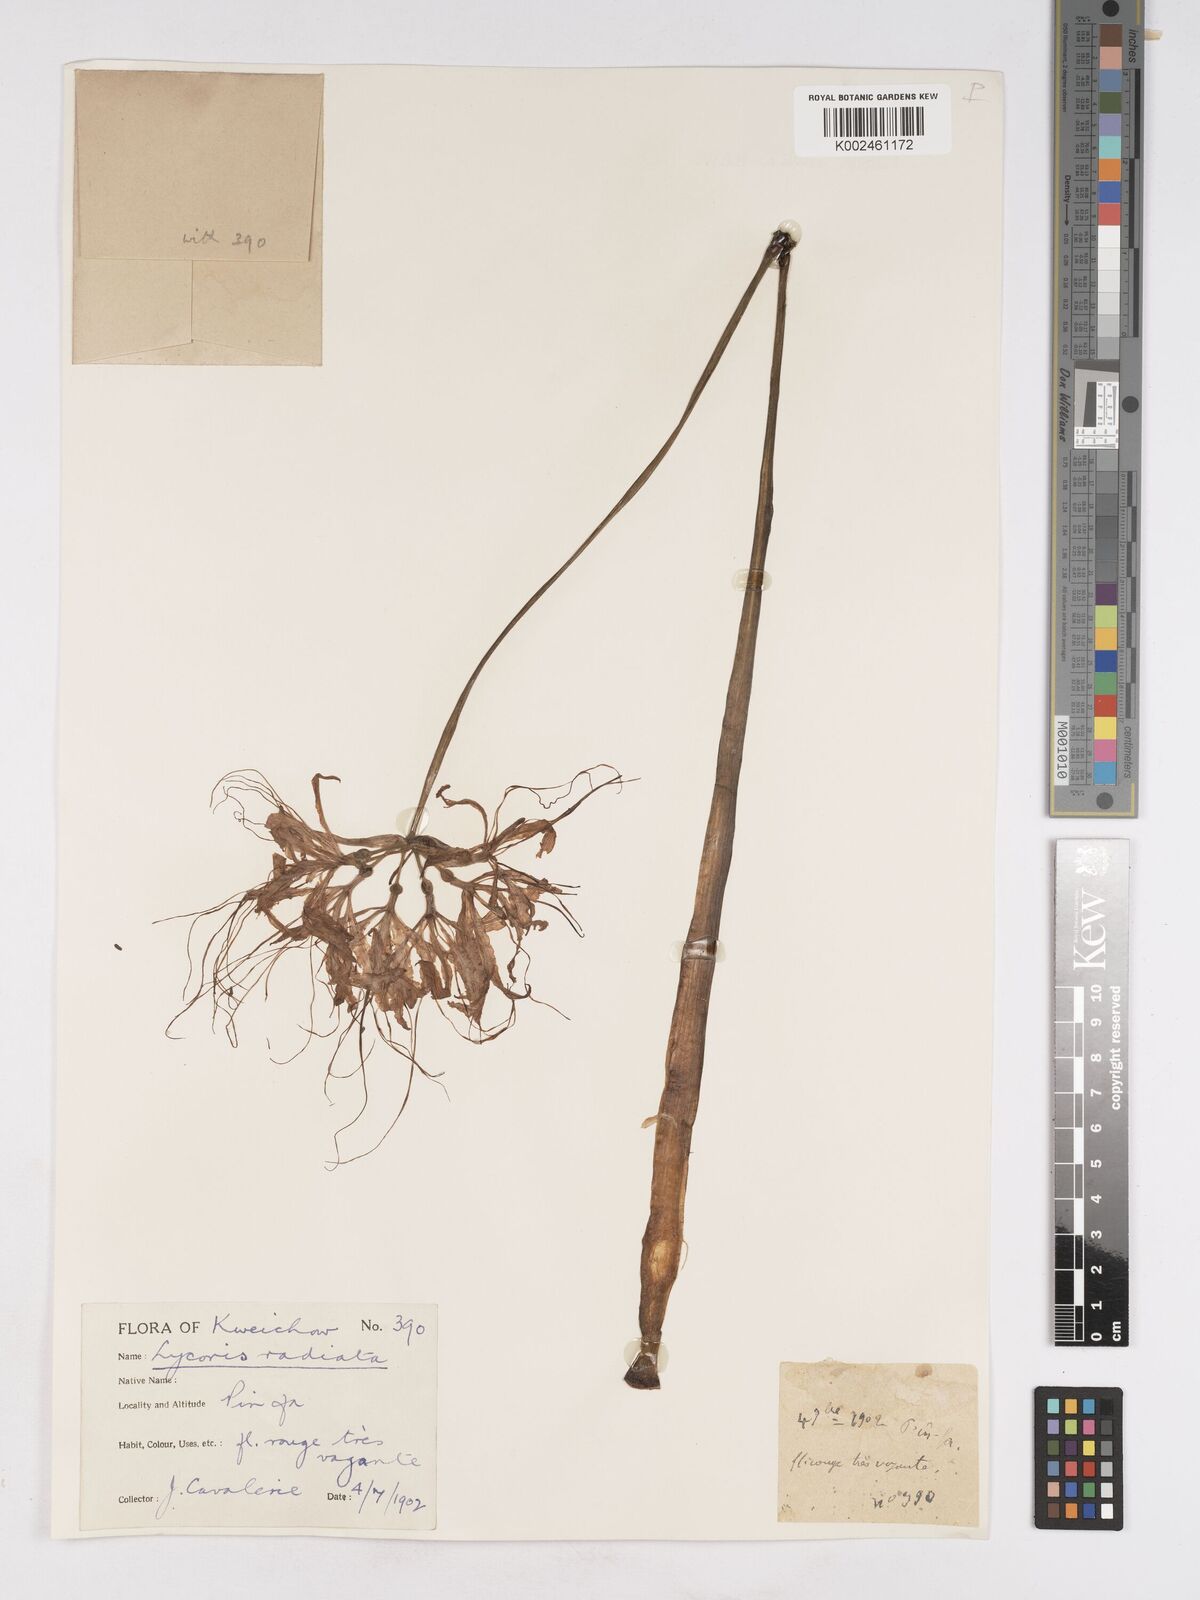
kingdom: Plantae
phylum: Tracheophyta
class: Liliopsida
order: Asparagales
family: Amaryllidaceae
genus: Lycoris
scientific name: Lycoris
